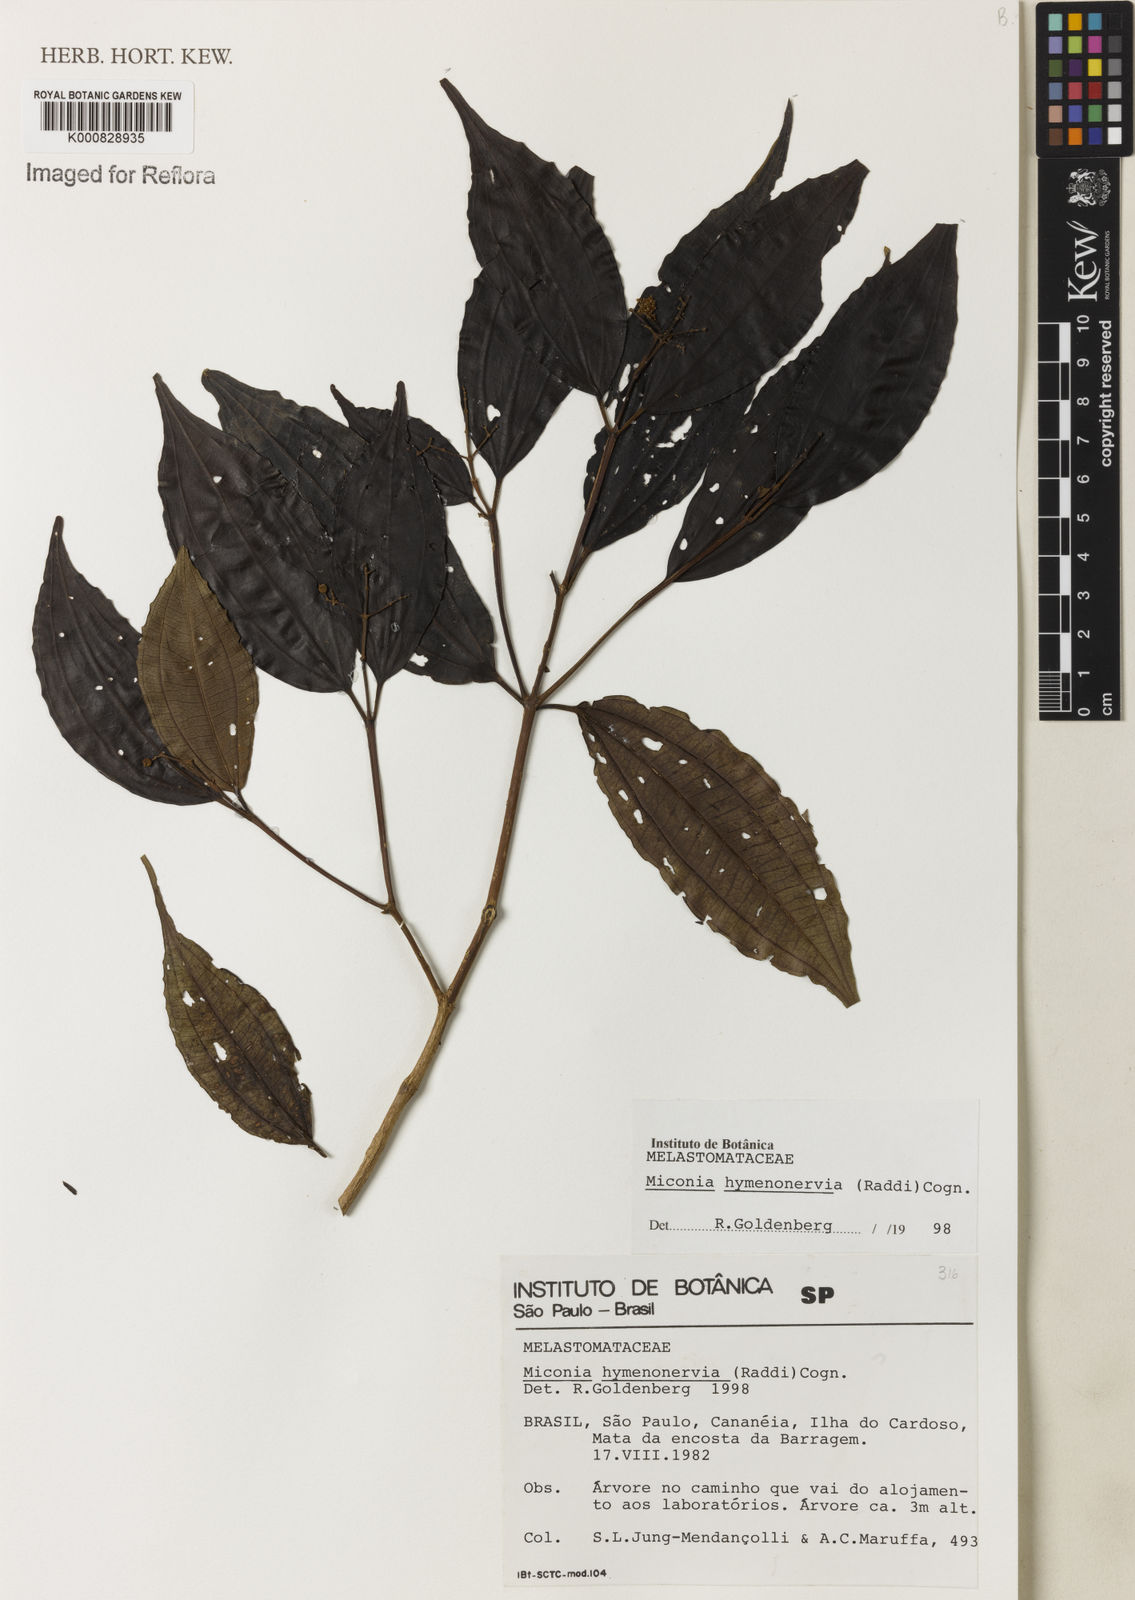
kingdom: Plantae
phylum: Tracheophyta
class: Magnoliopsida
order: Myrtales
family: Melastomataceae
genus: Miconia
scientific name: Miconia hymenonervia
